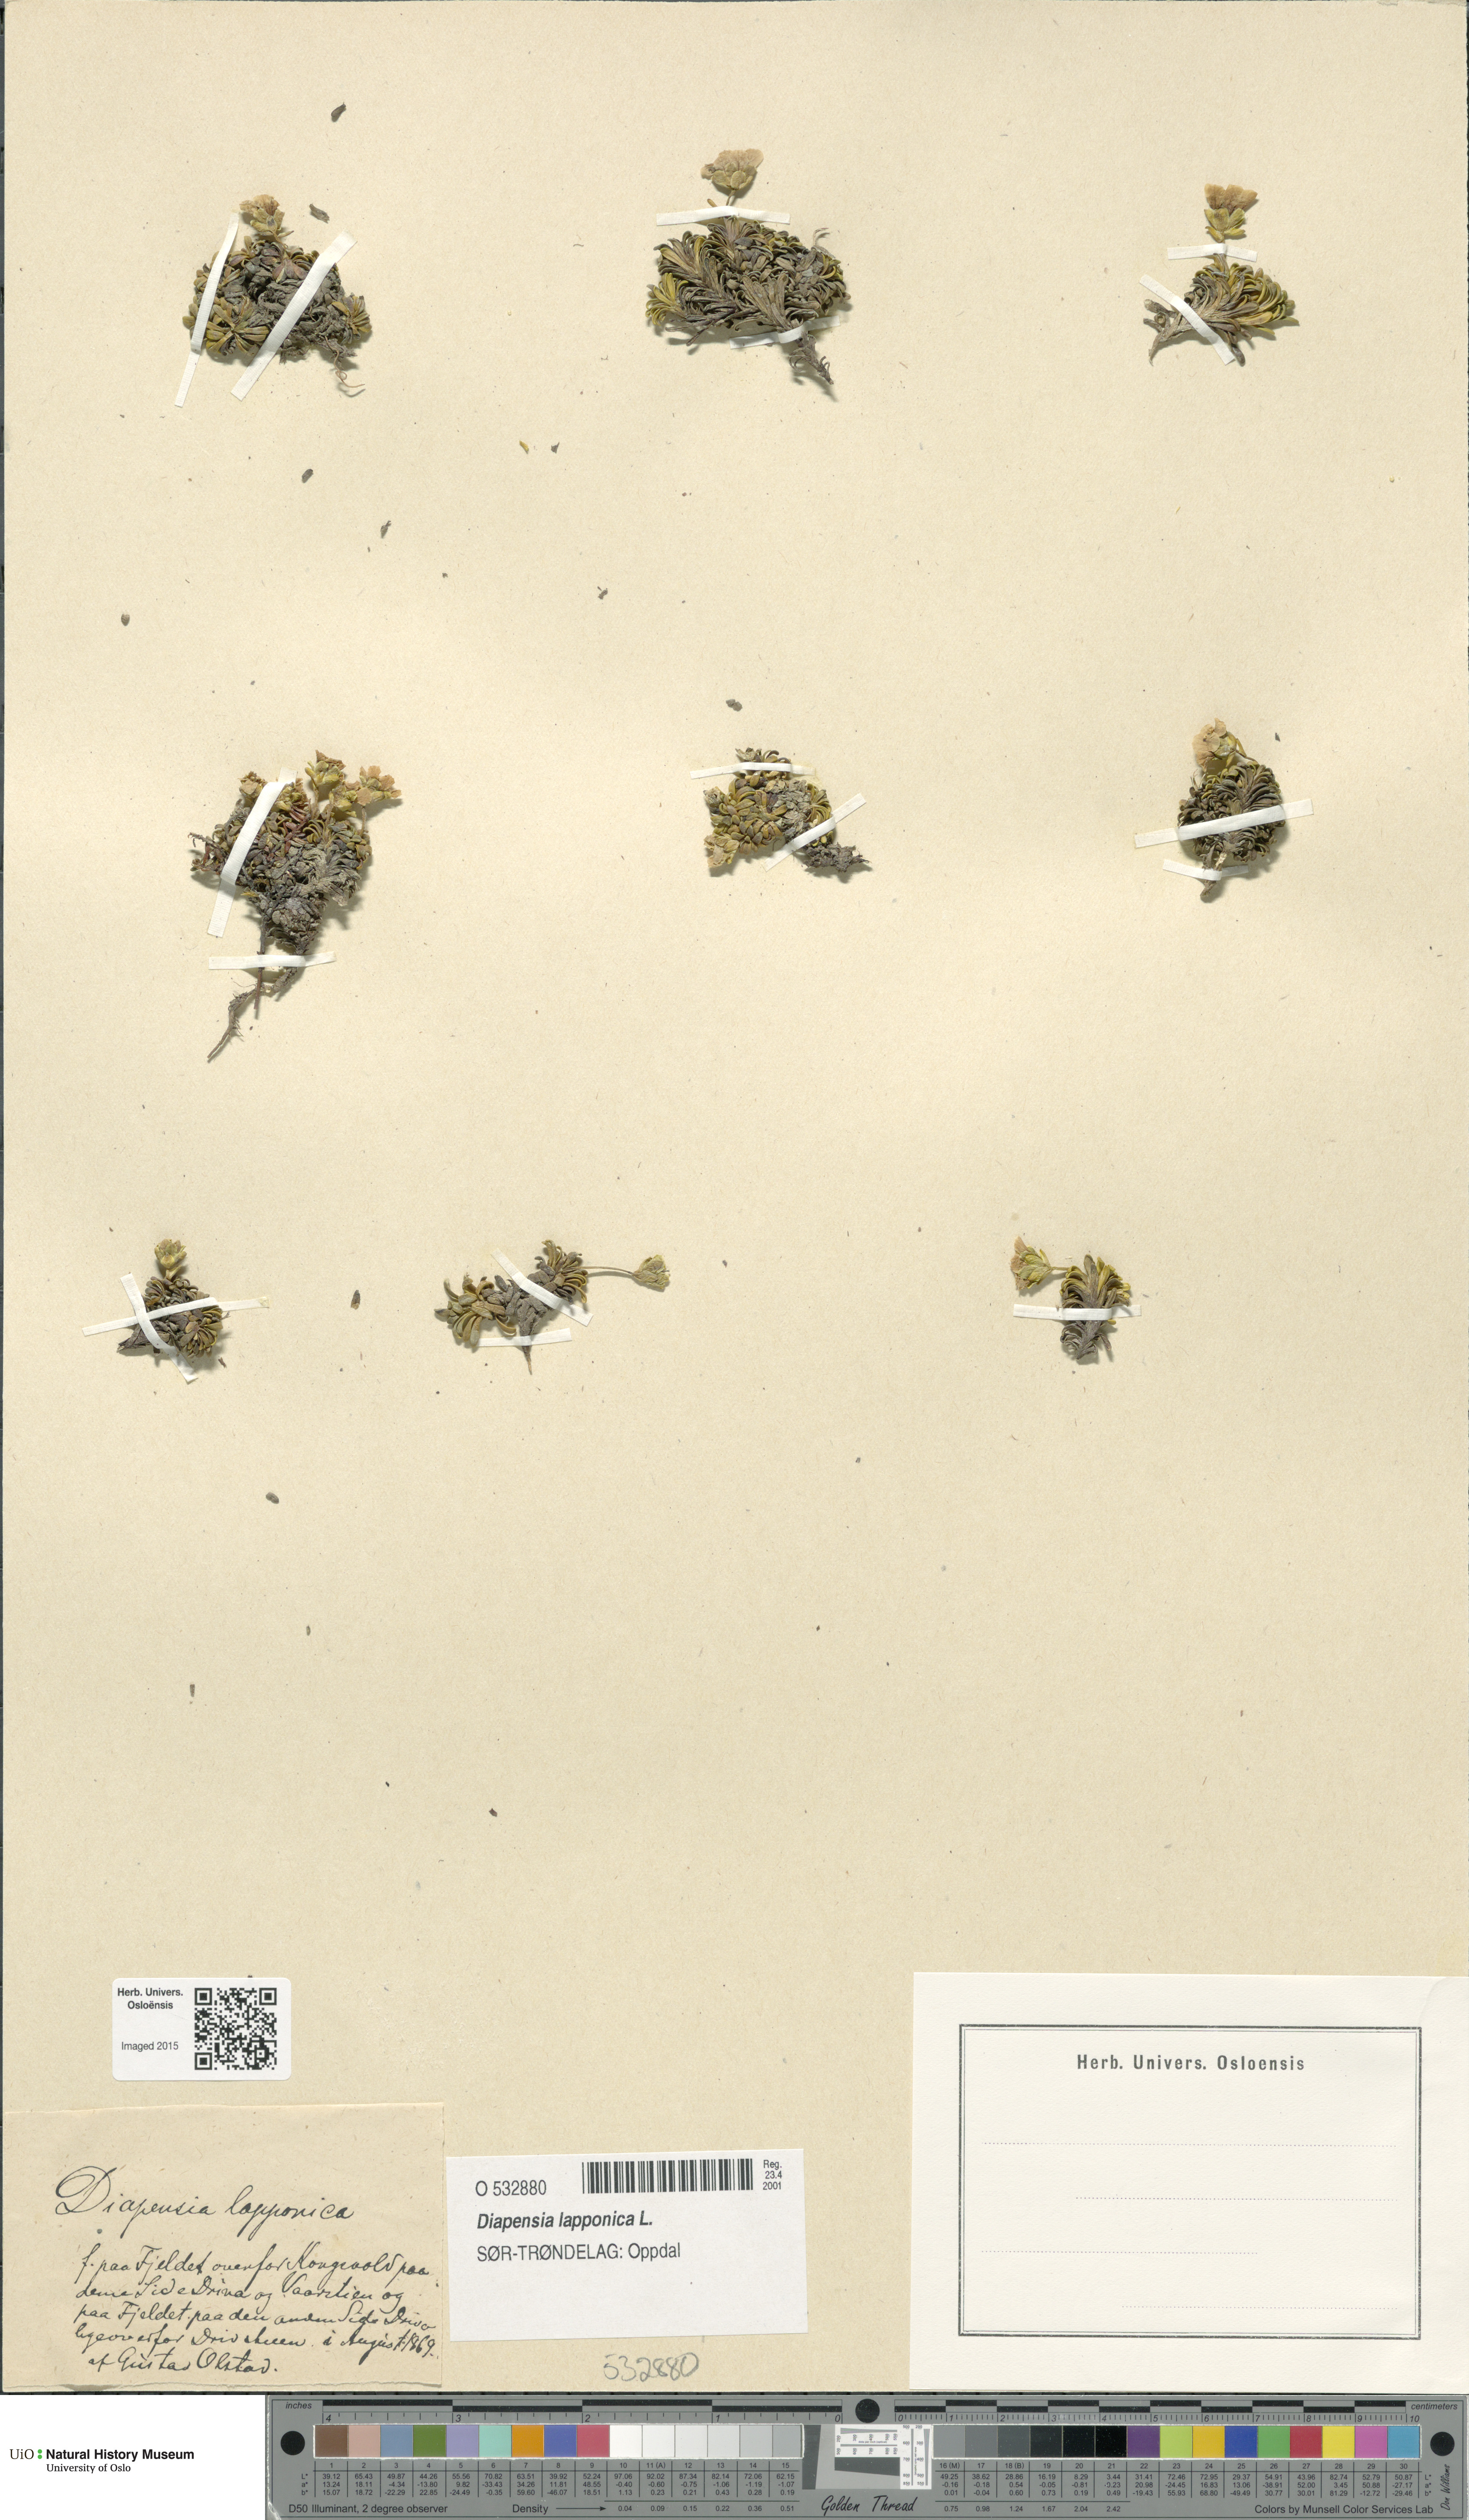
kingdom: Plantae
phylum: Tracheophyta
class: Magnoliopsida
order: Ericales
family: Diapensiaceae
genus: Diapensia
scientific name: Diapensia lapponica
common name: Diapensia
